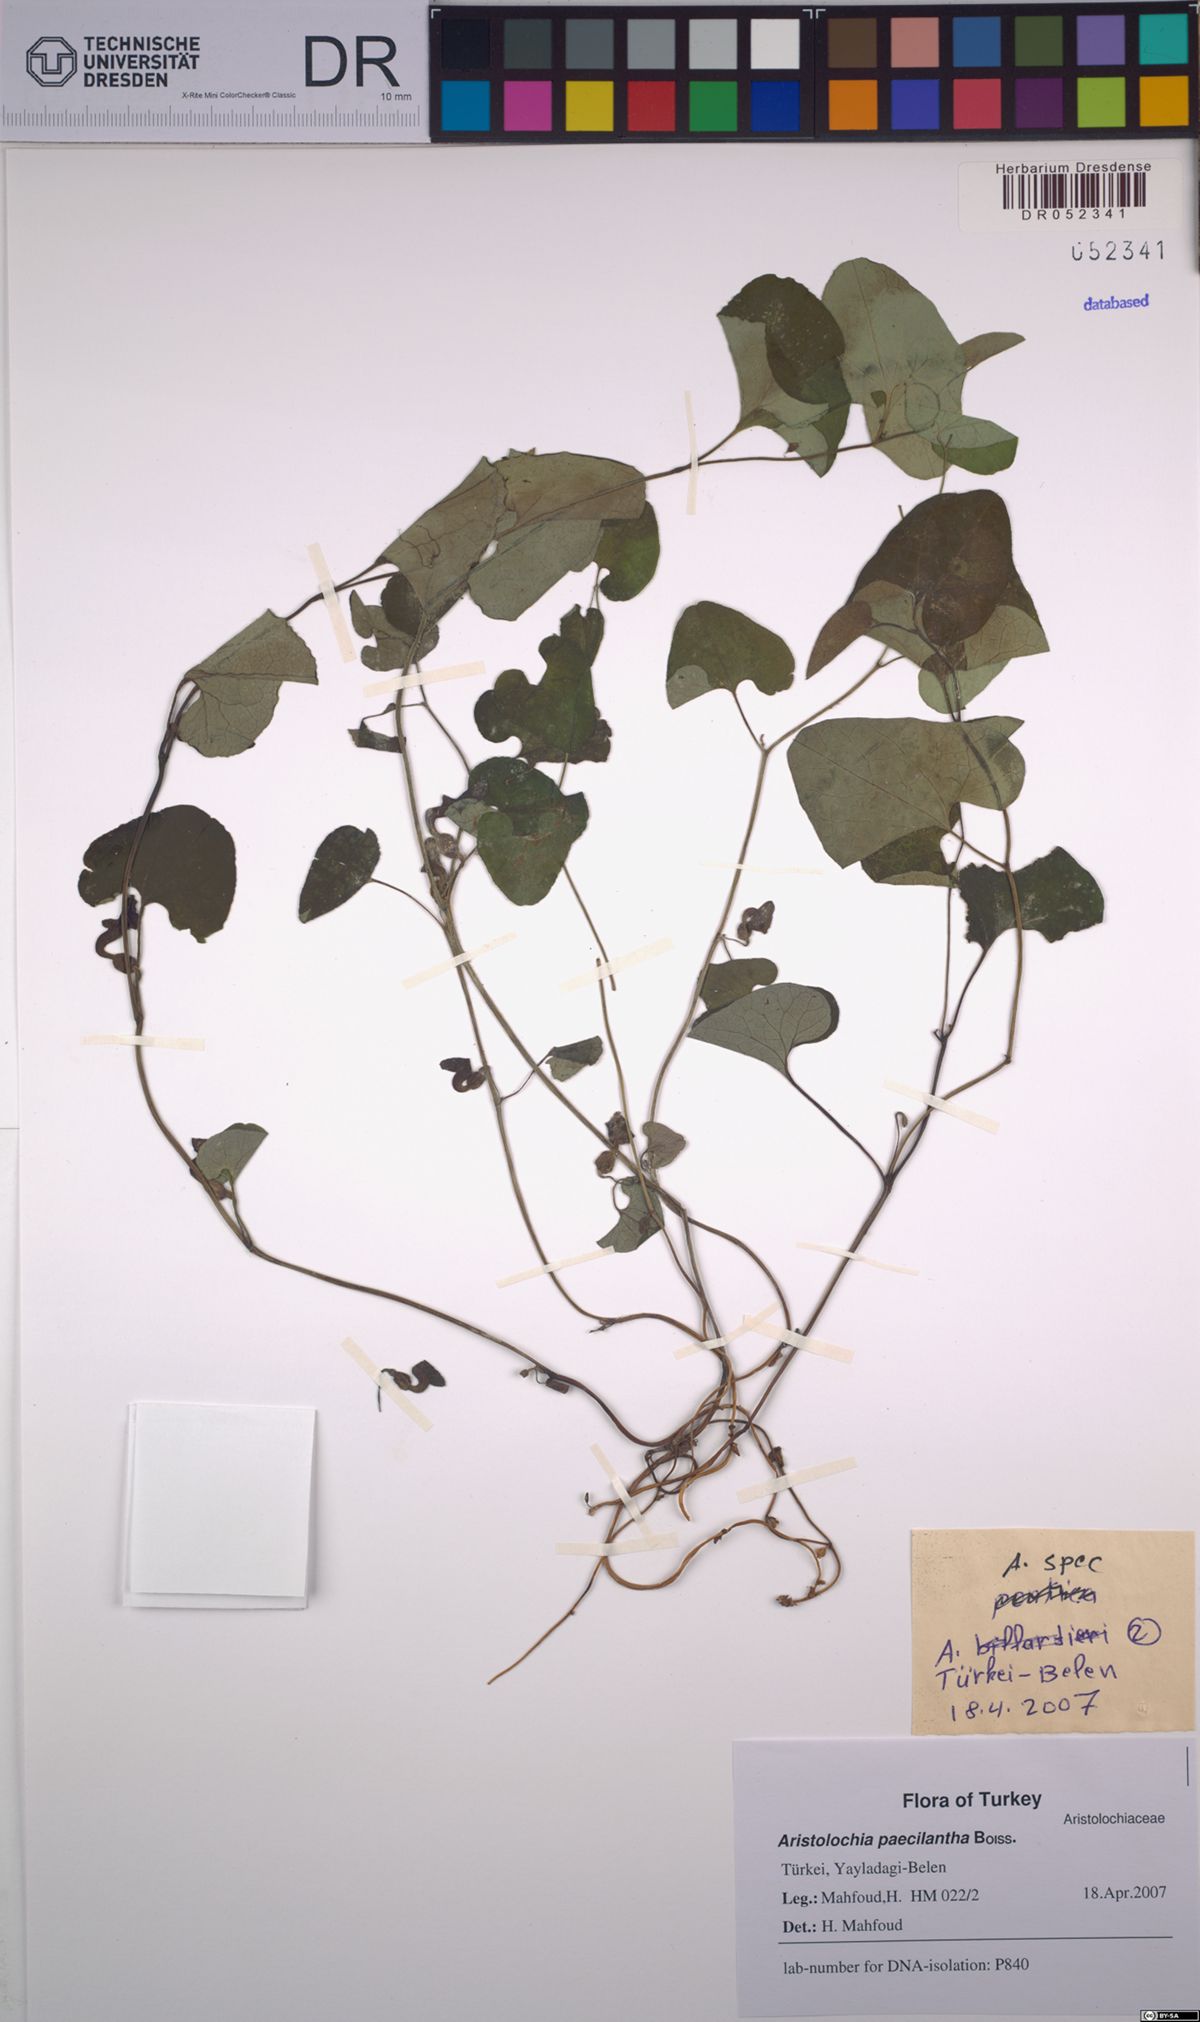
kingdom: Plantae
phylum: Tracheophyta
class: Magnoliopsida
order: Piperales
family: Aristolochiaceae
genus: Aristolochia
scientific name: Aristolochia paecilantha
